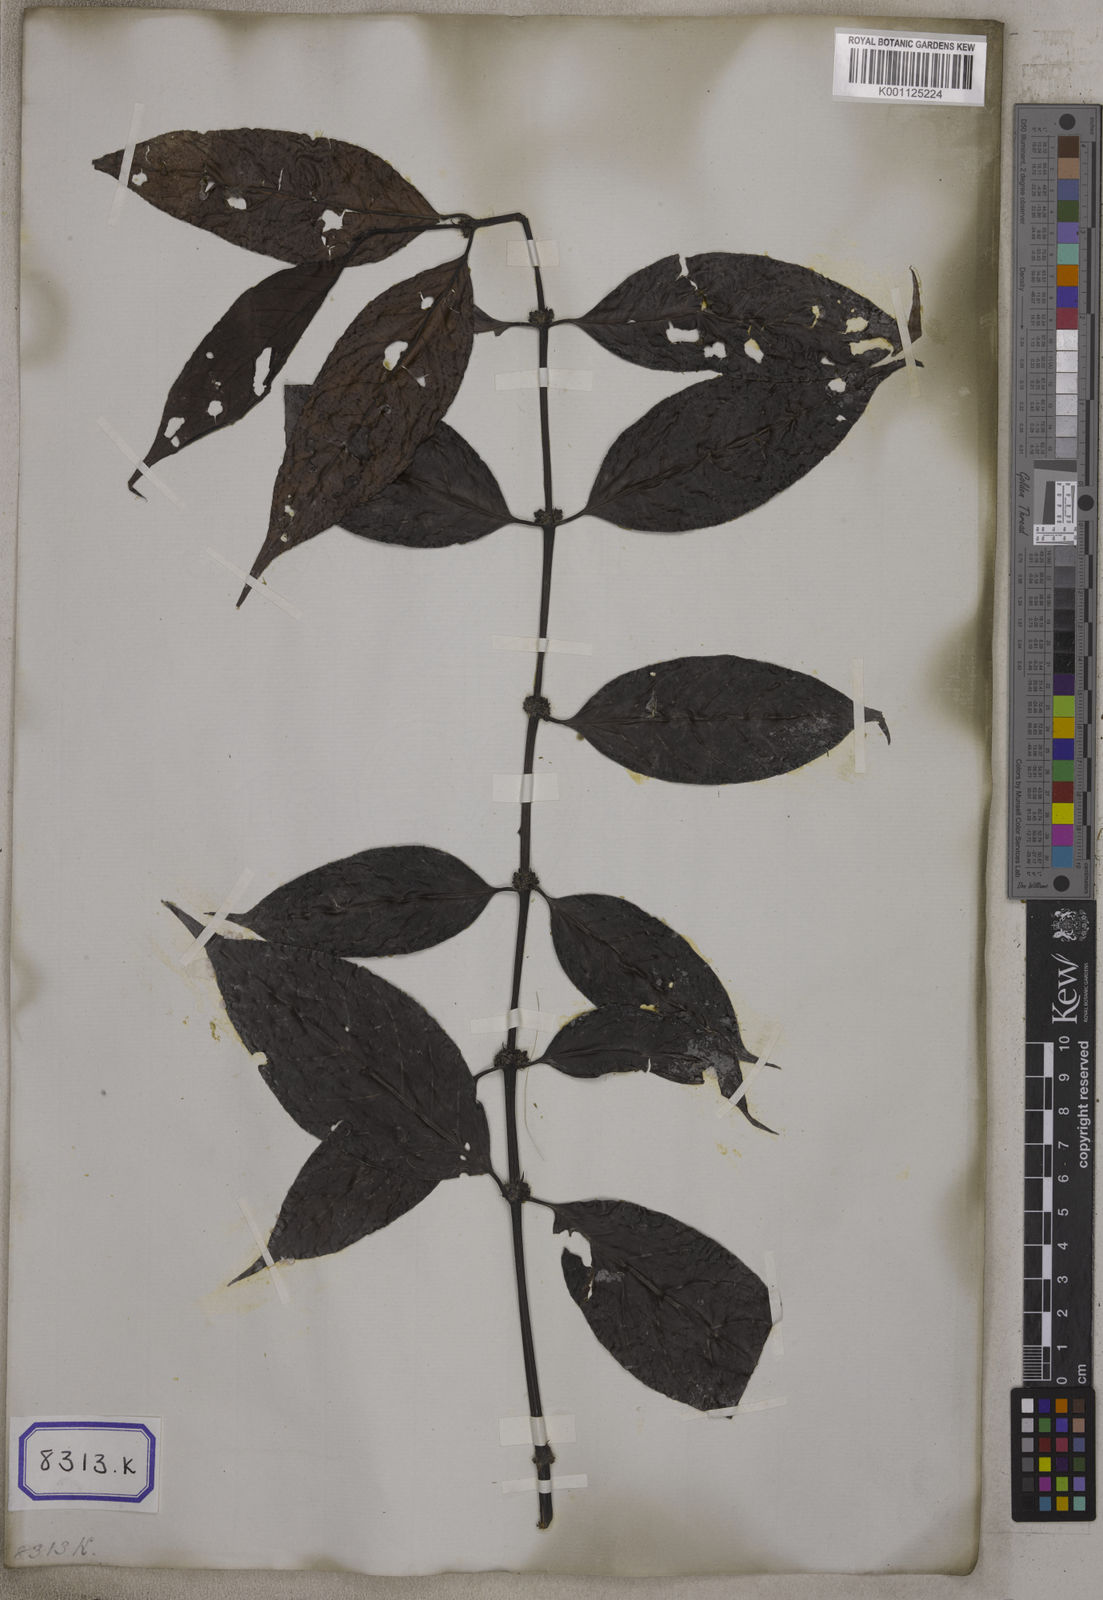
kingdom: Plantae
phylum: Tracheophyta
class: Magnoliopsida
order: Gentianales
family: Rubiaceae
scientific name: Rubiaceae
